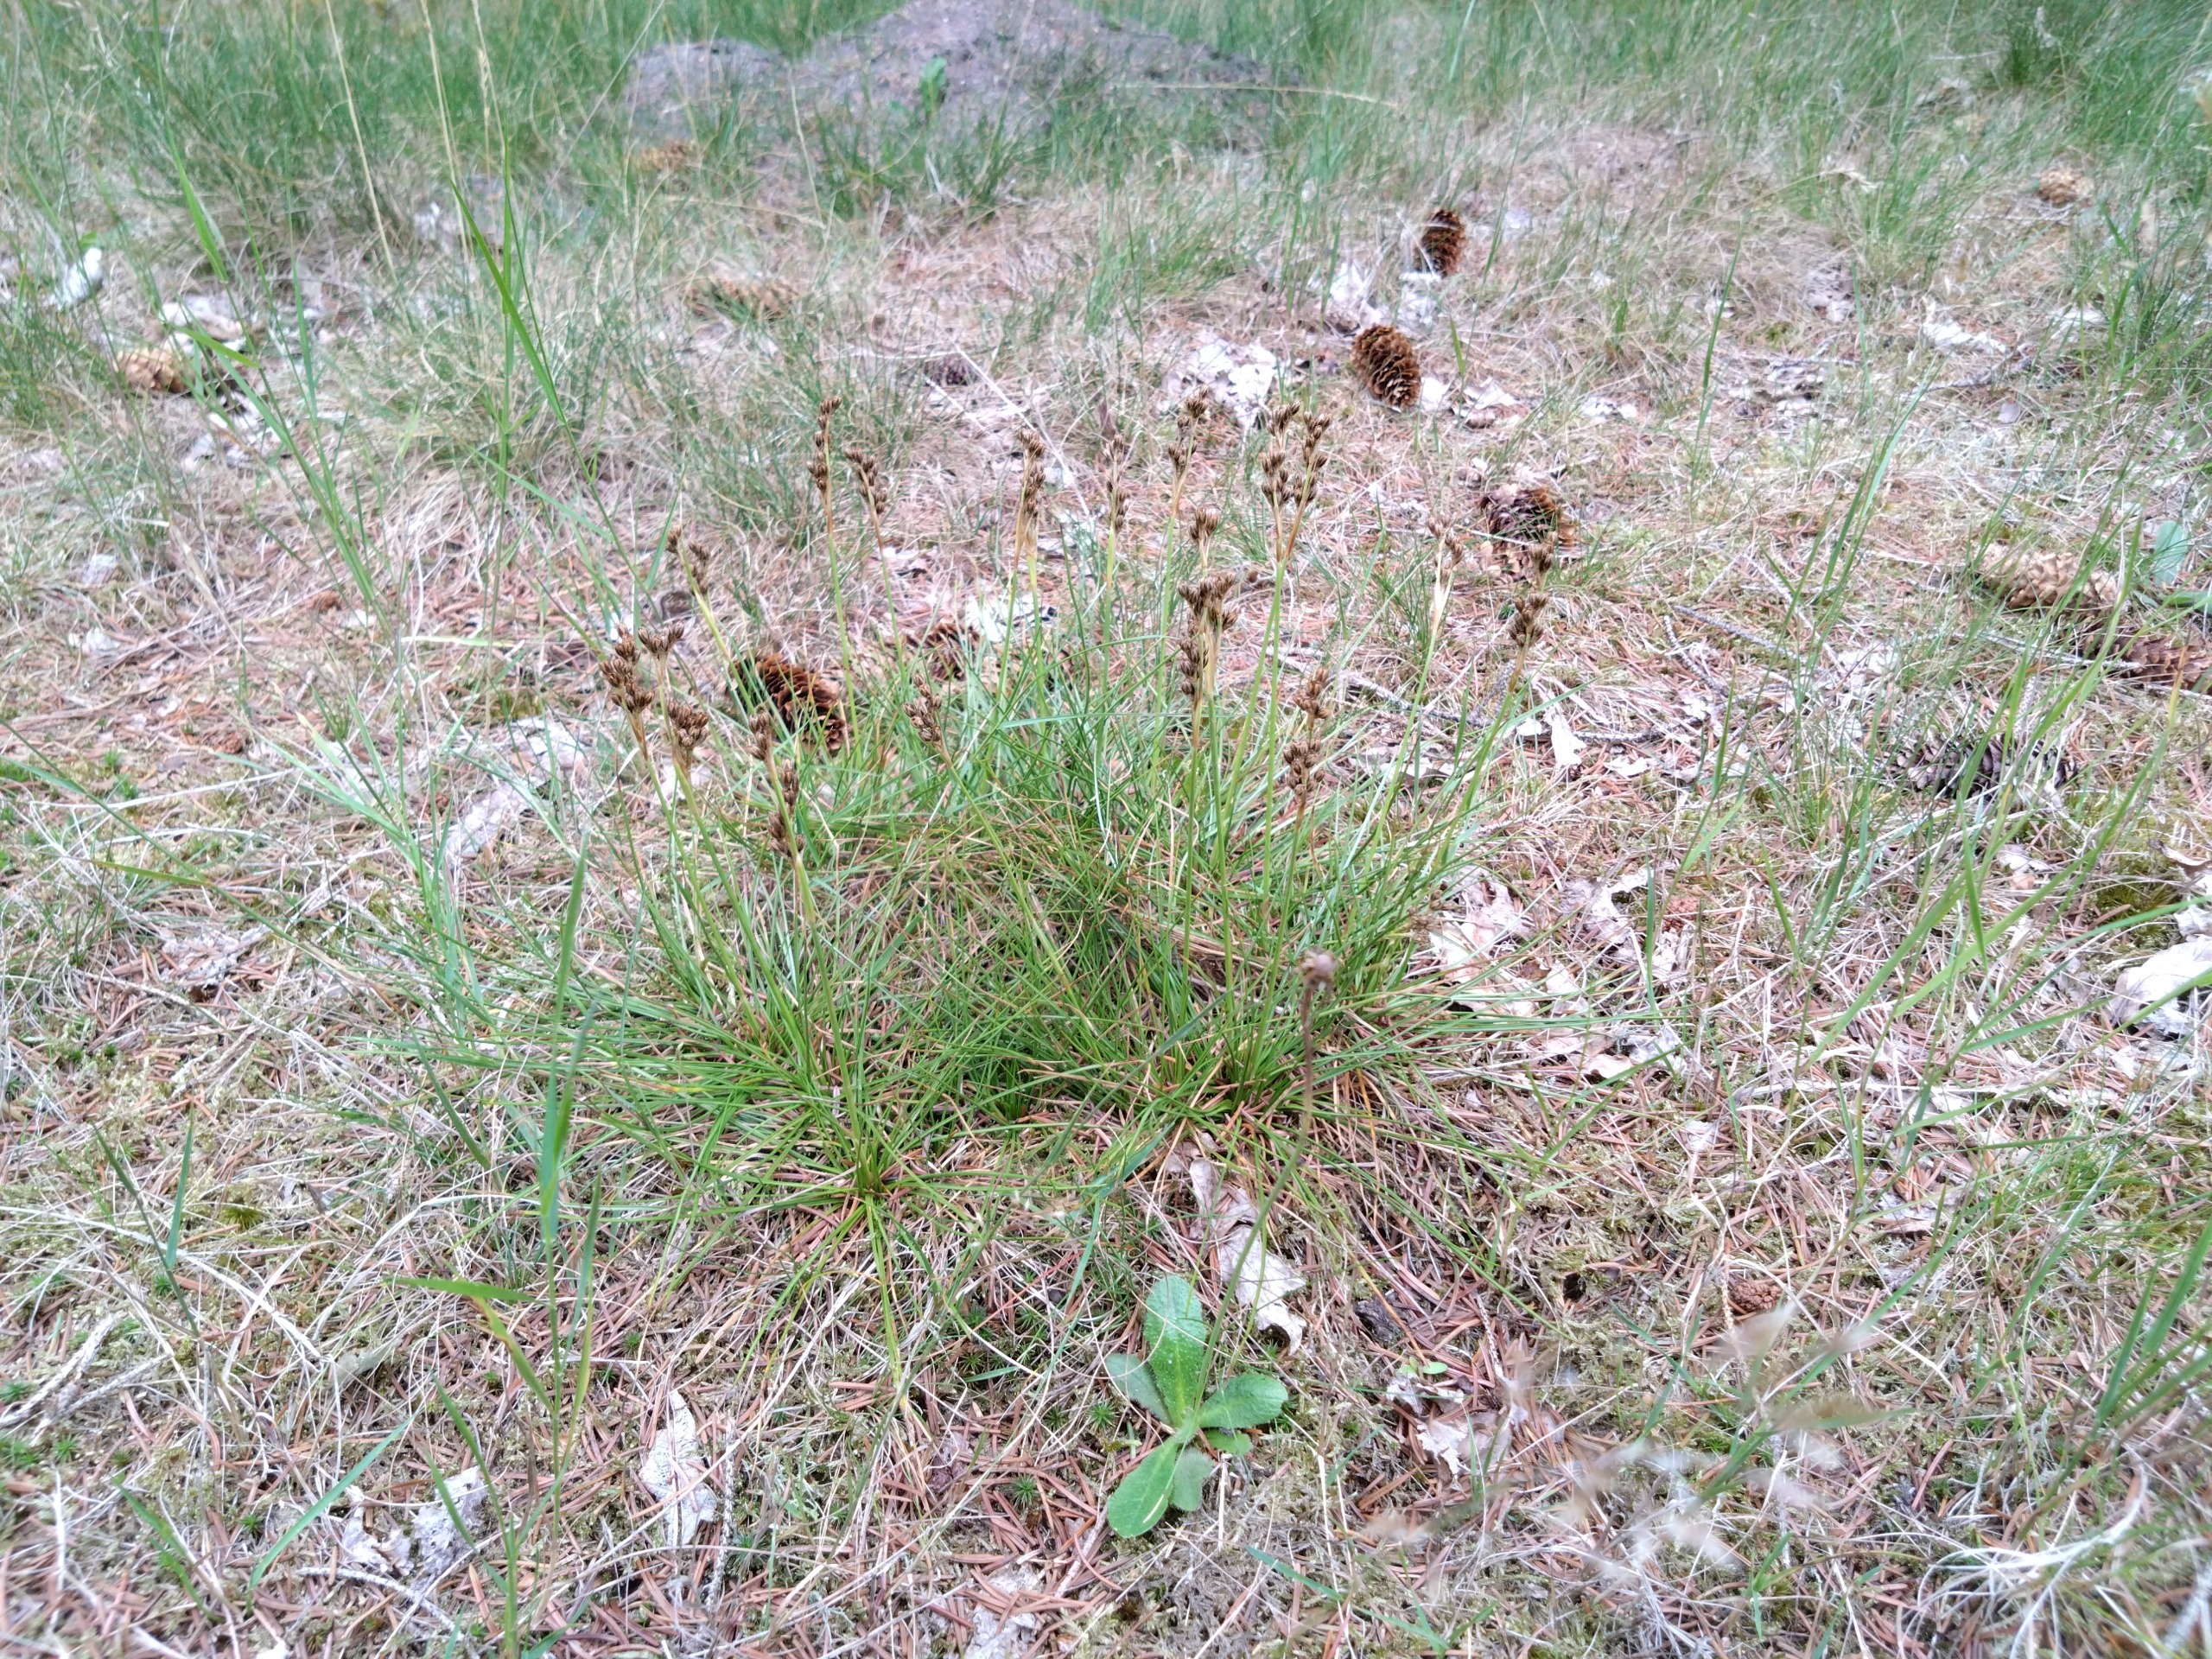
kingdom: Plantae
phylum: Tracheophyta
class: Liliopsida
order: Poales
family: Juncaceae
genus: Juncus
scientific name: Juncus squarrosus
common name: Børste-siv
